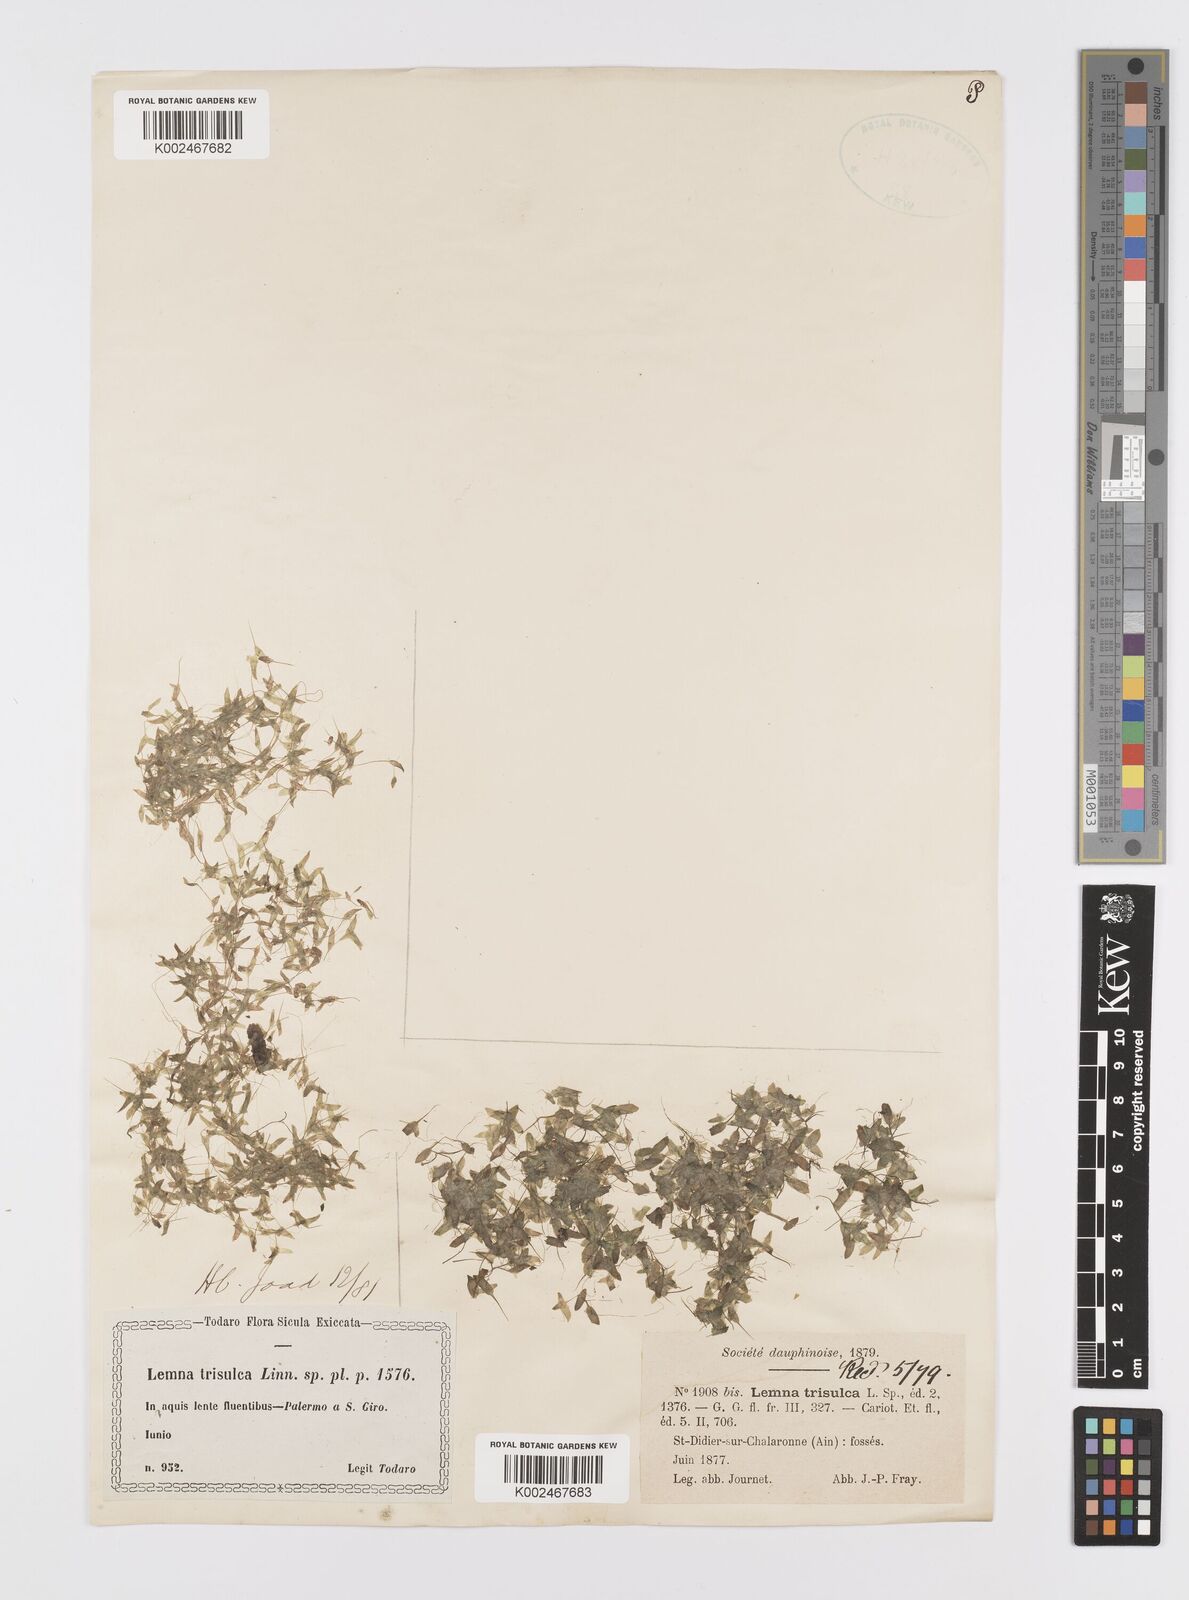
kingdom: Plantae
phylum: Tracheophyta
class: Liliopsida
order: Alismatales
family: Araceae
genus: Lemna
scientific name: Lemna trisulca
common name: Ivy-leaved duckweed
